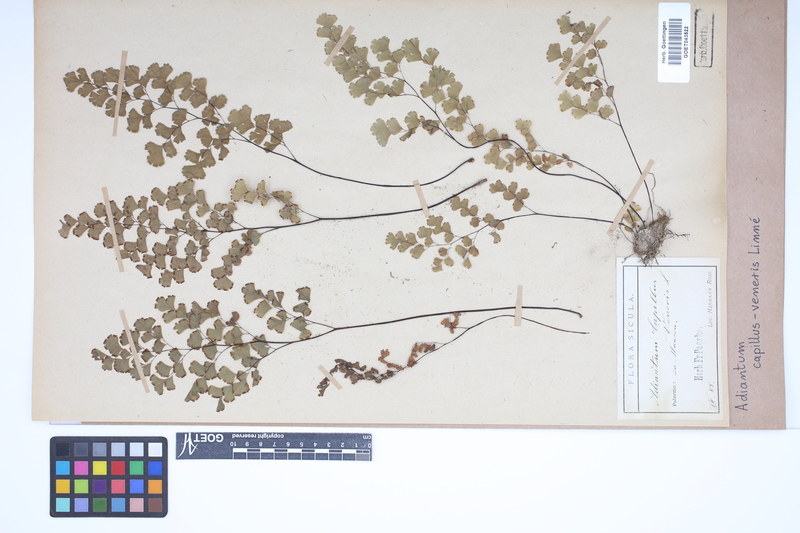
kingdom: Plantae
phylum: Tracheophyta
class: Polypodiopsida
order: Polypodiales
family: Pteridaceae
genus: Adiantum
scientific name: Adiantum capillus-veneris
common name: Maidenhair fern
